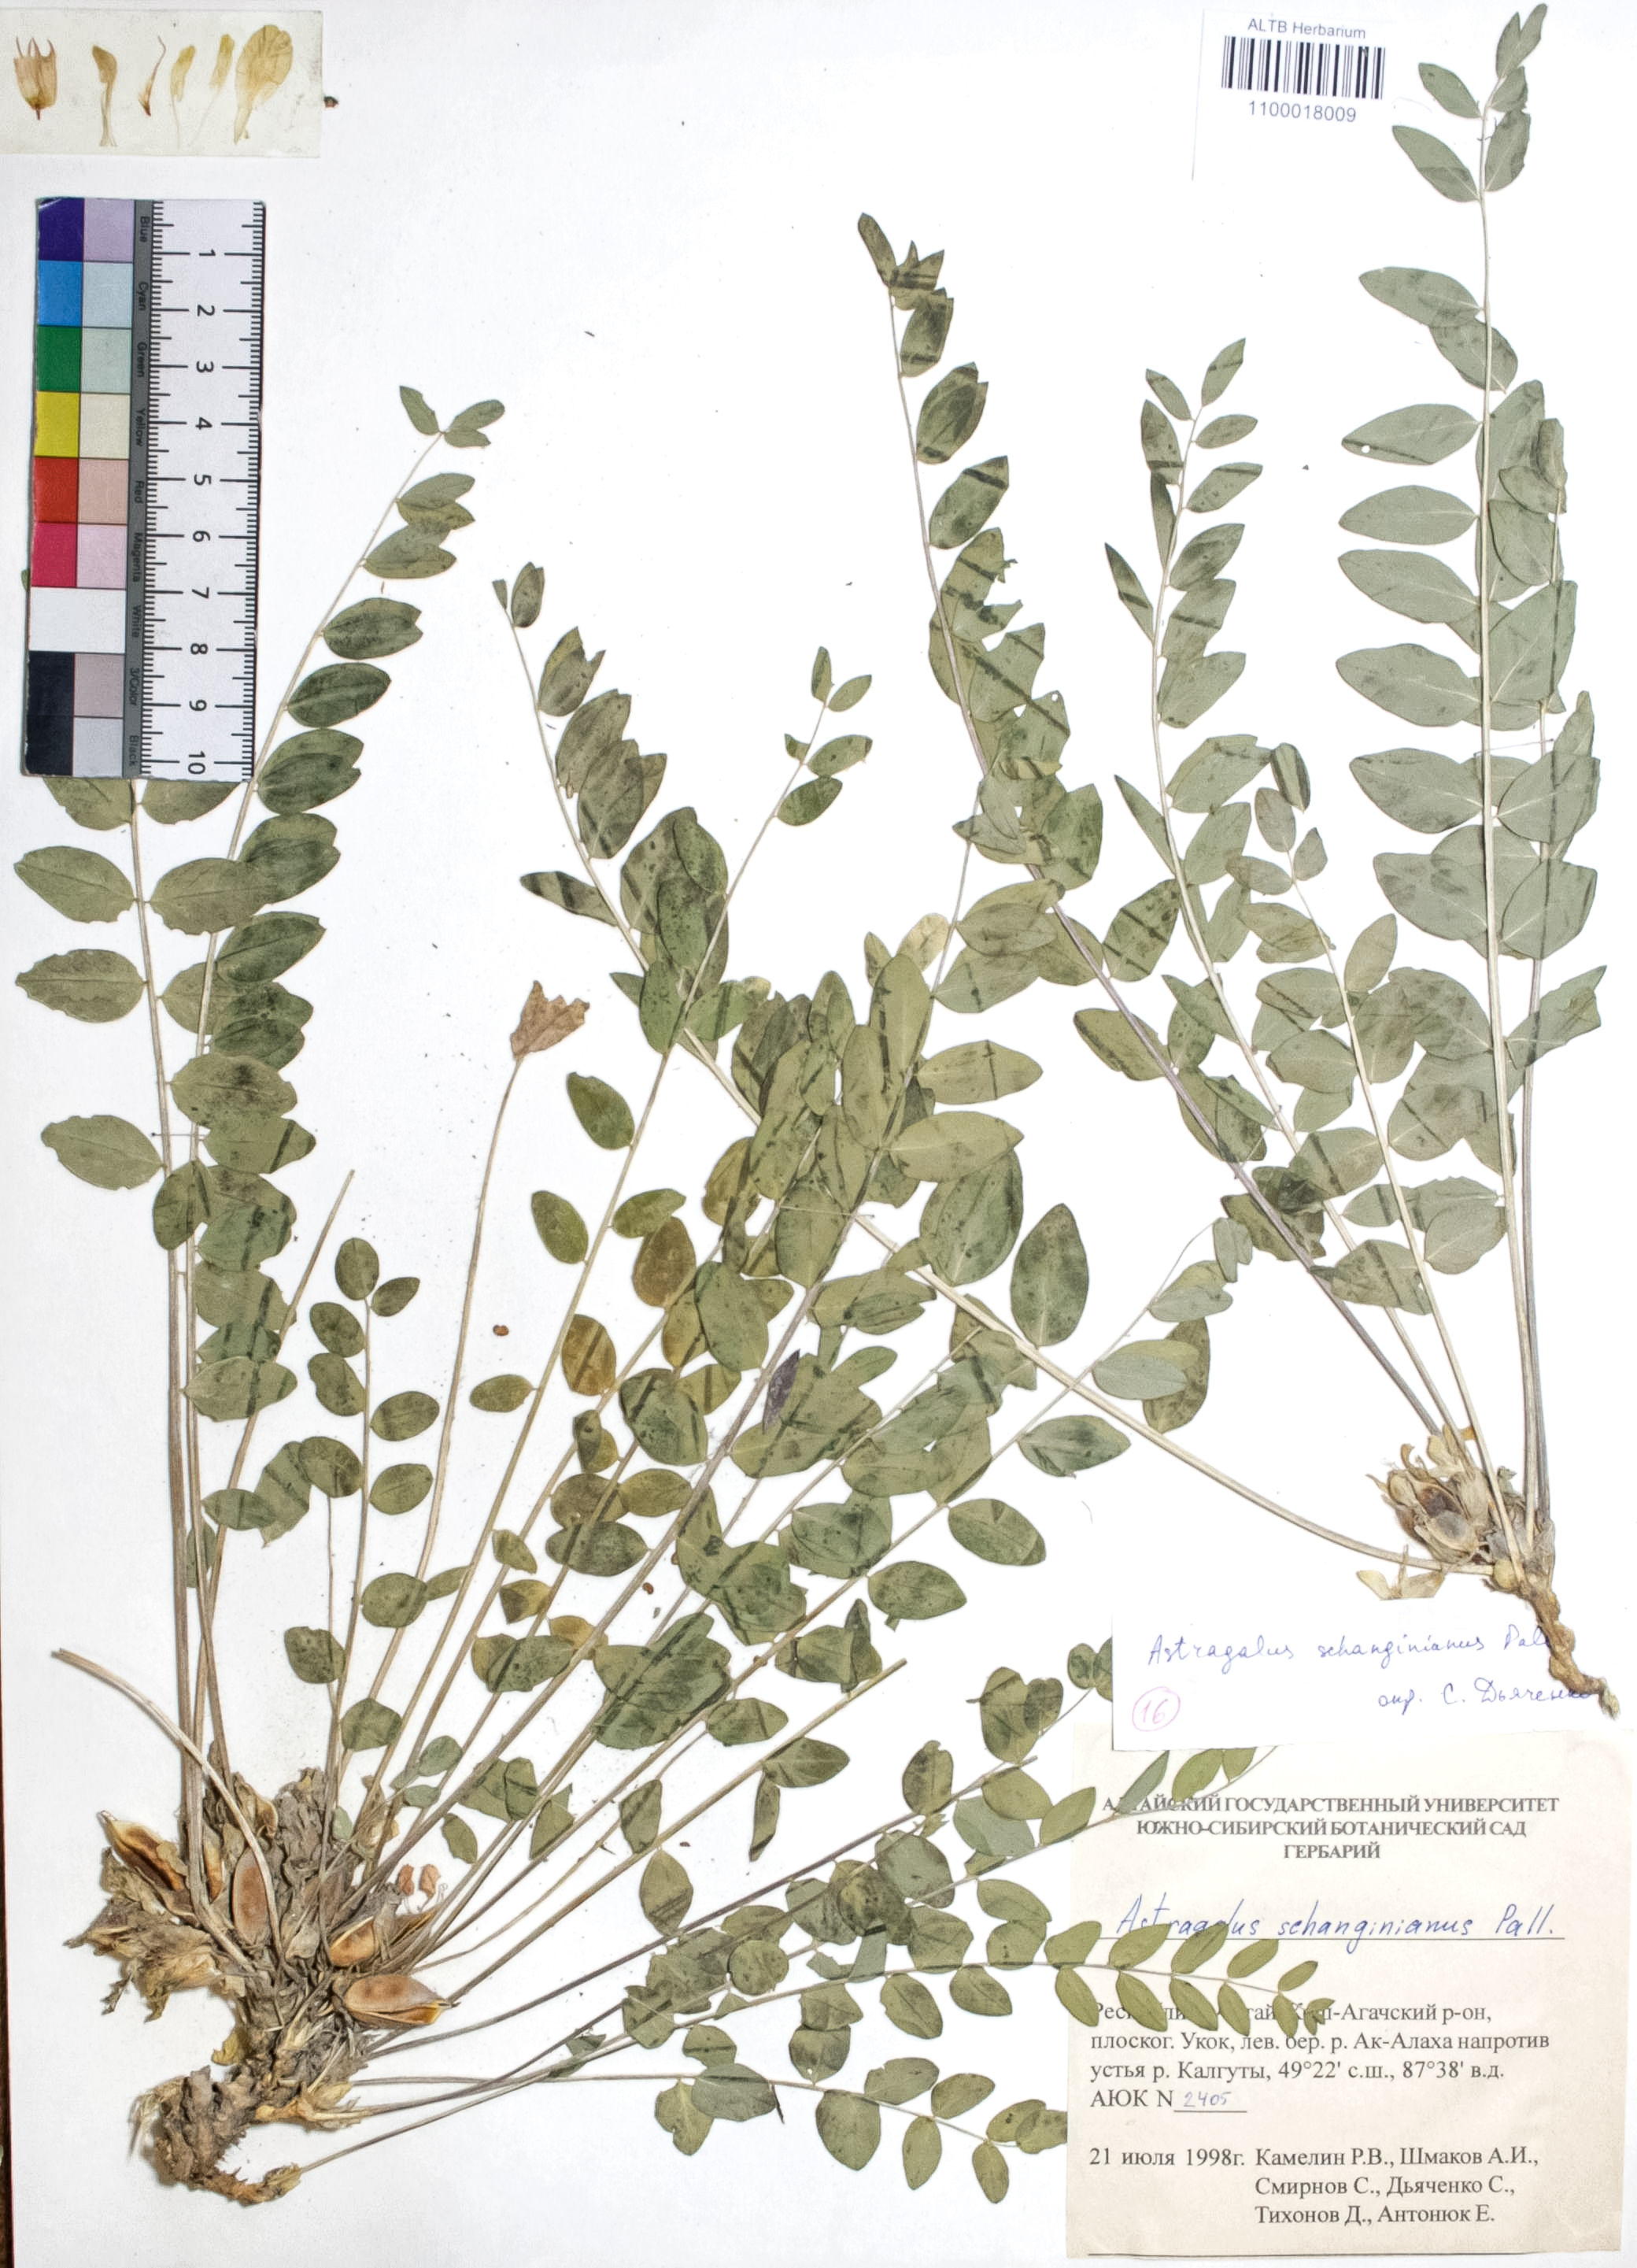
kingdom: Plantae
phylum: Tracheophyta
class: Magnoliopsida
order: Fabales
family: Fabaceae
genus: Astragalus
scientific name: Astragalus schanginianus
